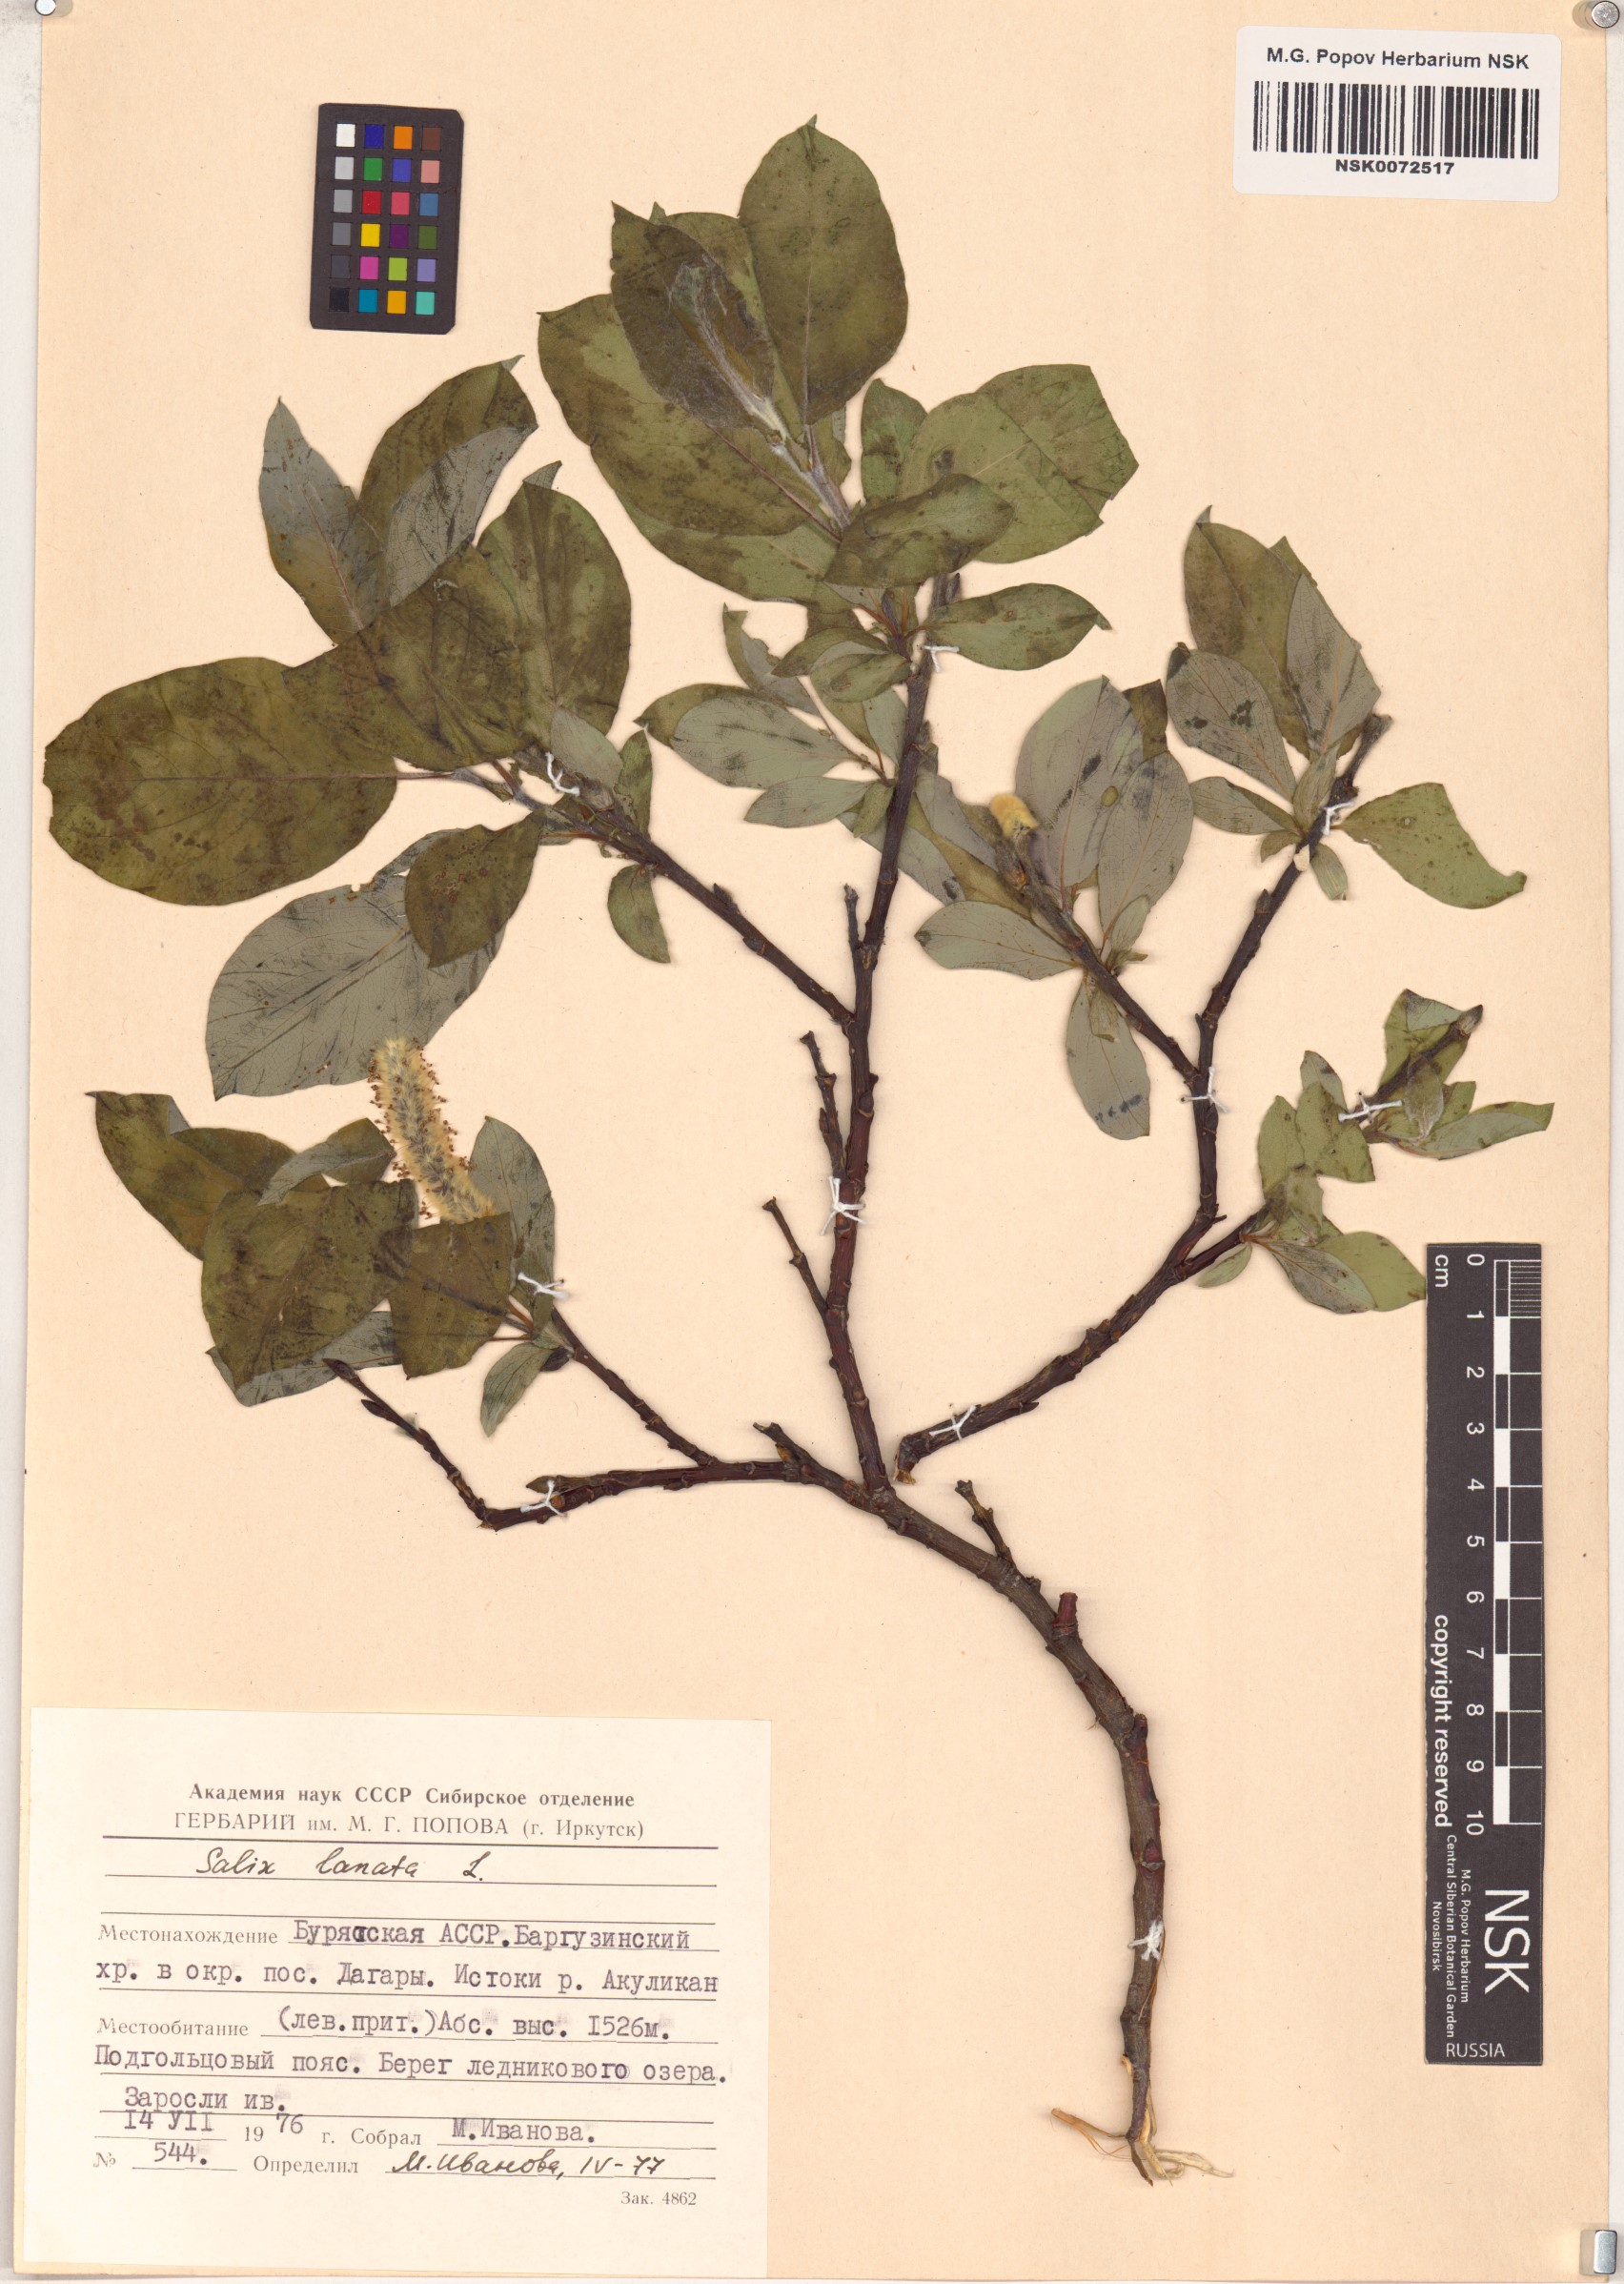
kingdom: Plantae
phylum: Tracheophyta
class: Magnoliopsida
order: Malpighiales
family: Salicaceae
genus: Salix
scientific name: Salix lanata
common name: Woolly willow
